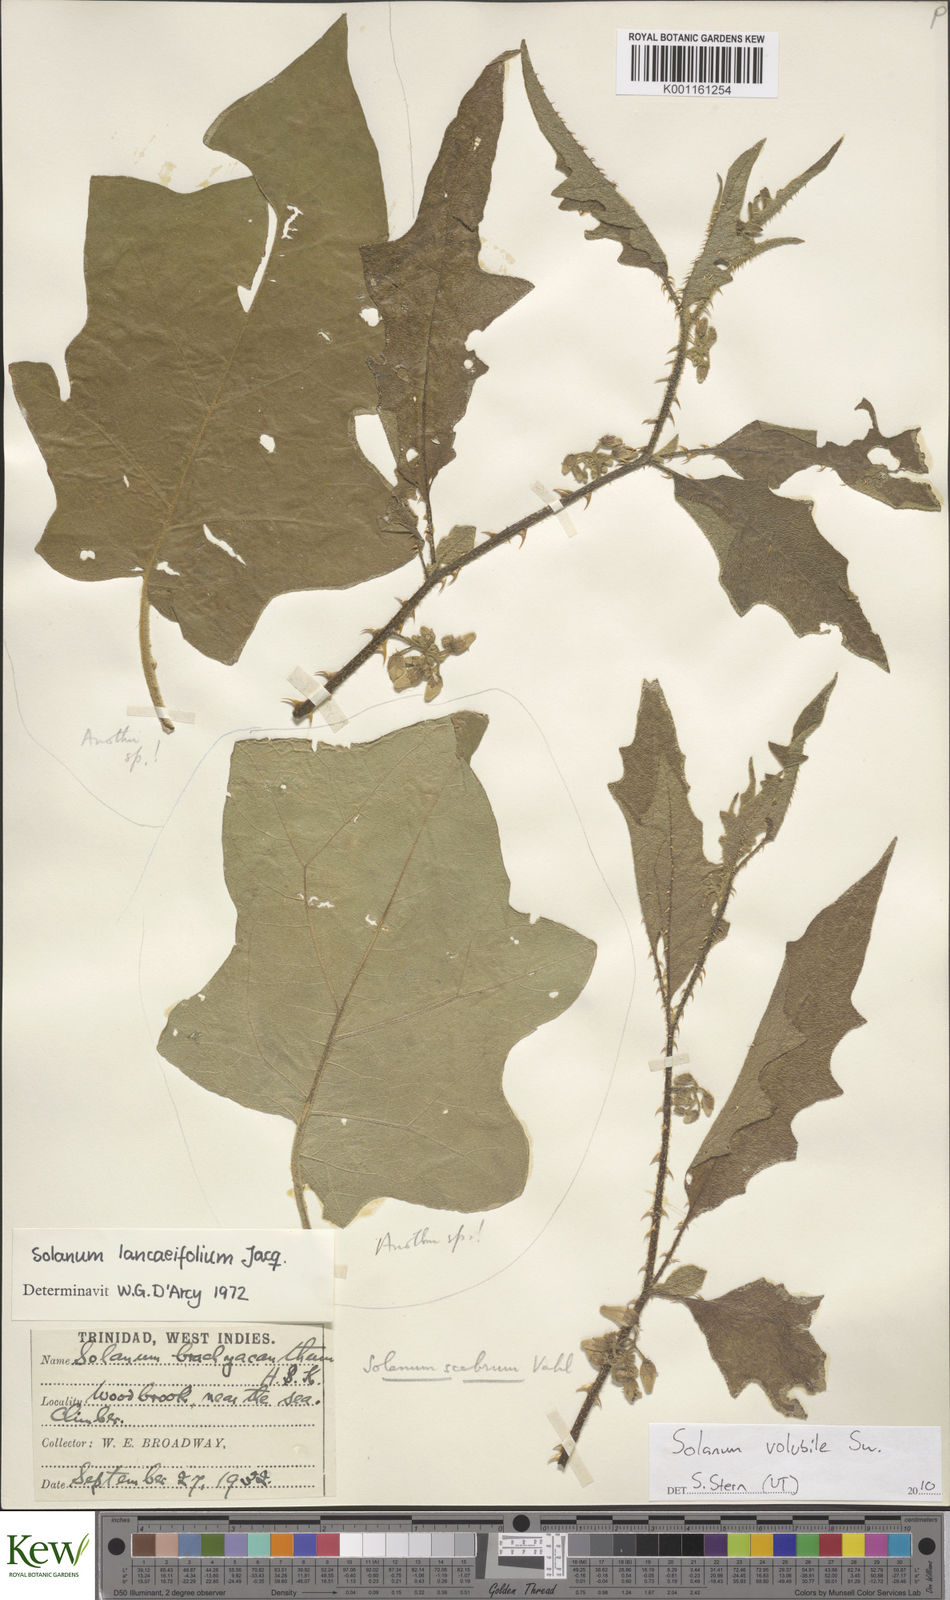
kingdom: Plantae
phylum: Tracheophyta
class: Magnoliopsida
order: Solanales
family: Solanaceae
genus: Solanum
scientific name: Solanum volubile
